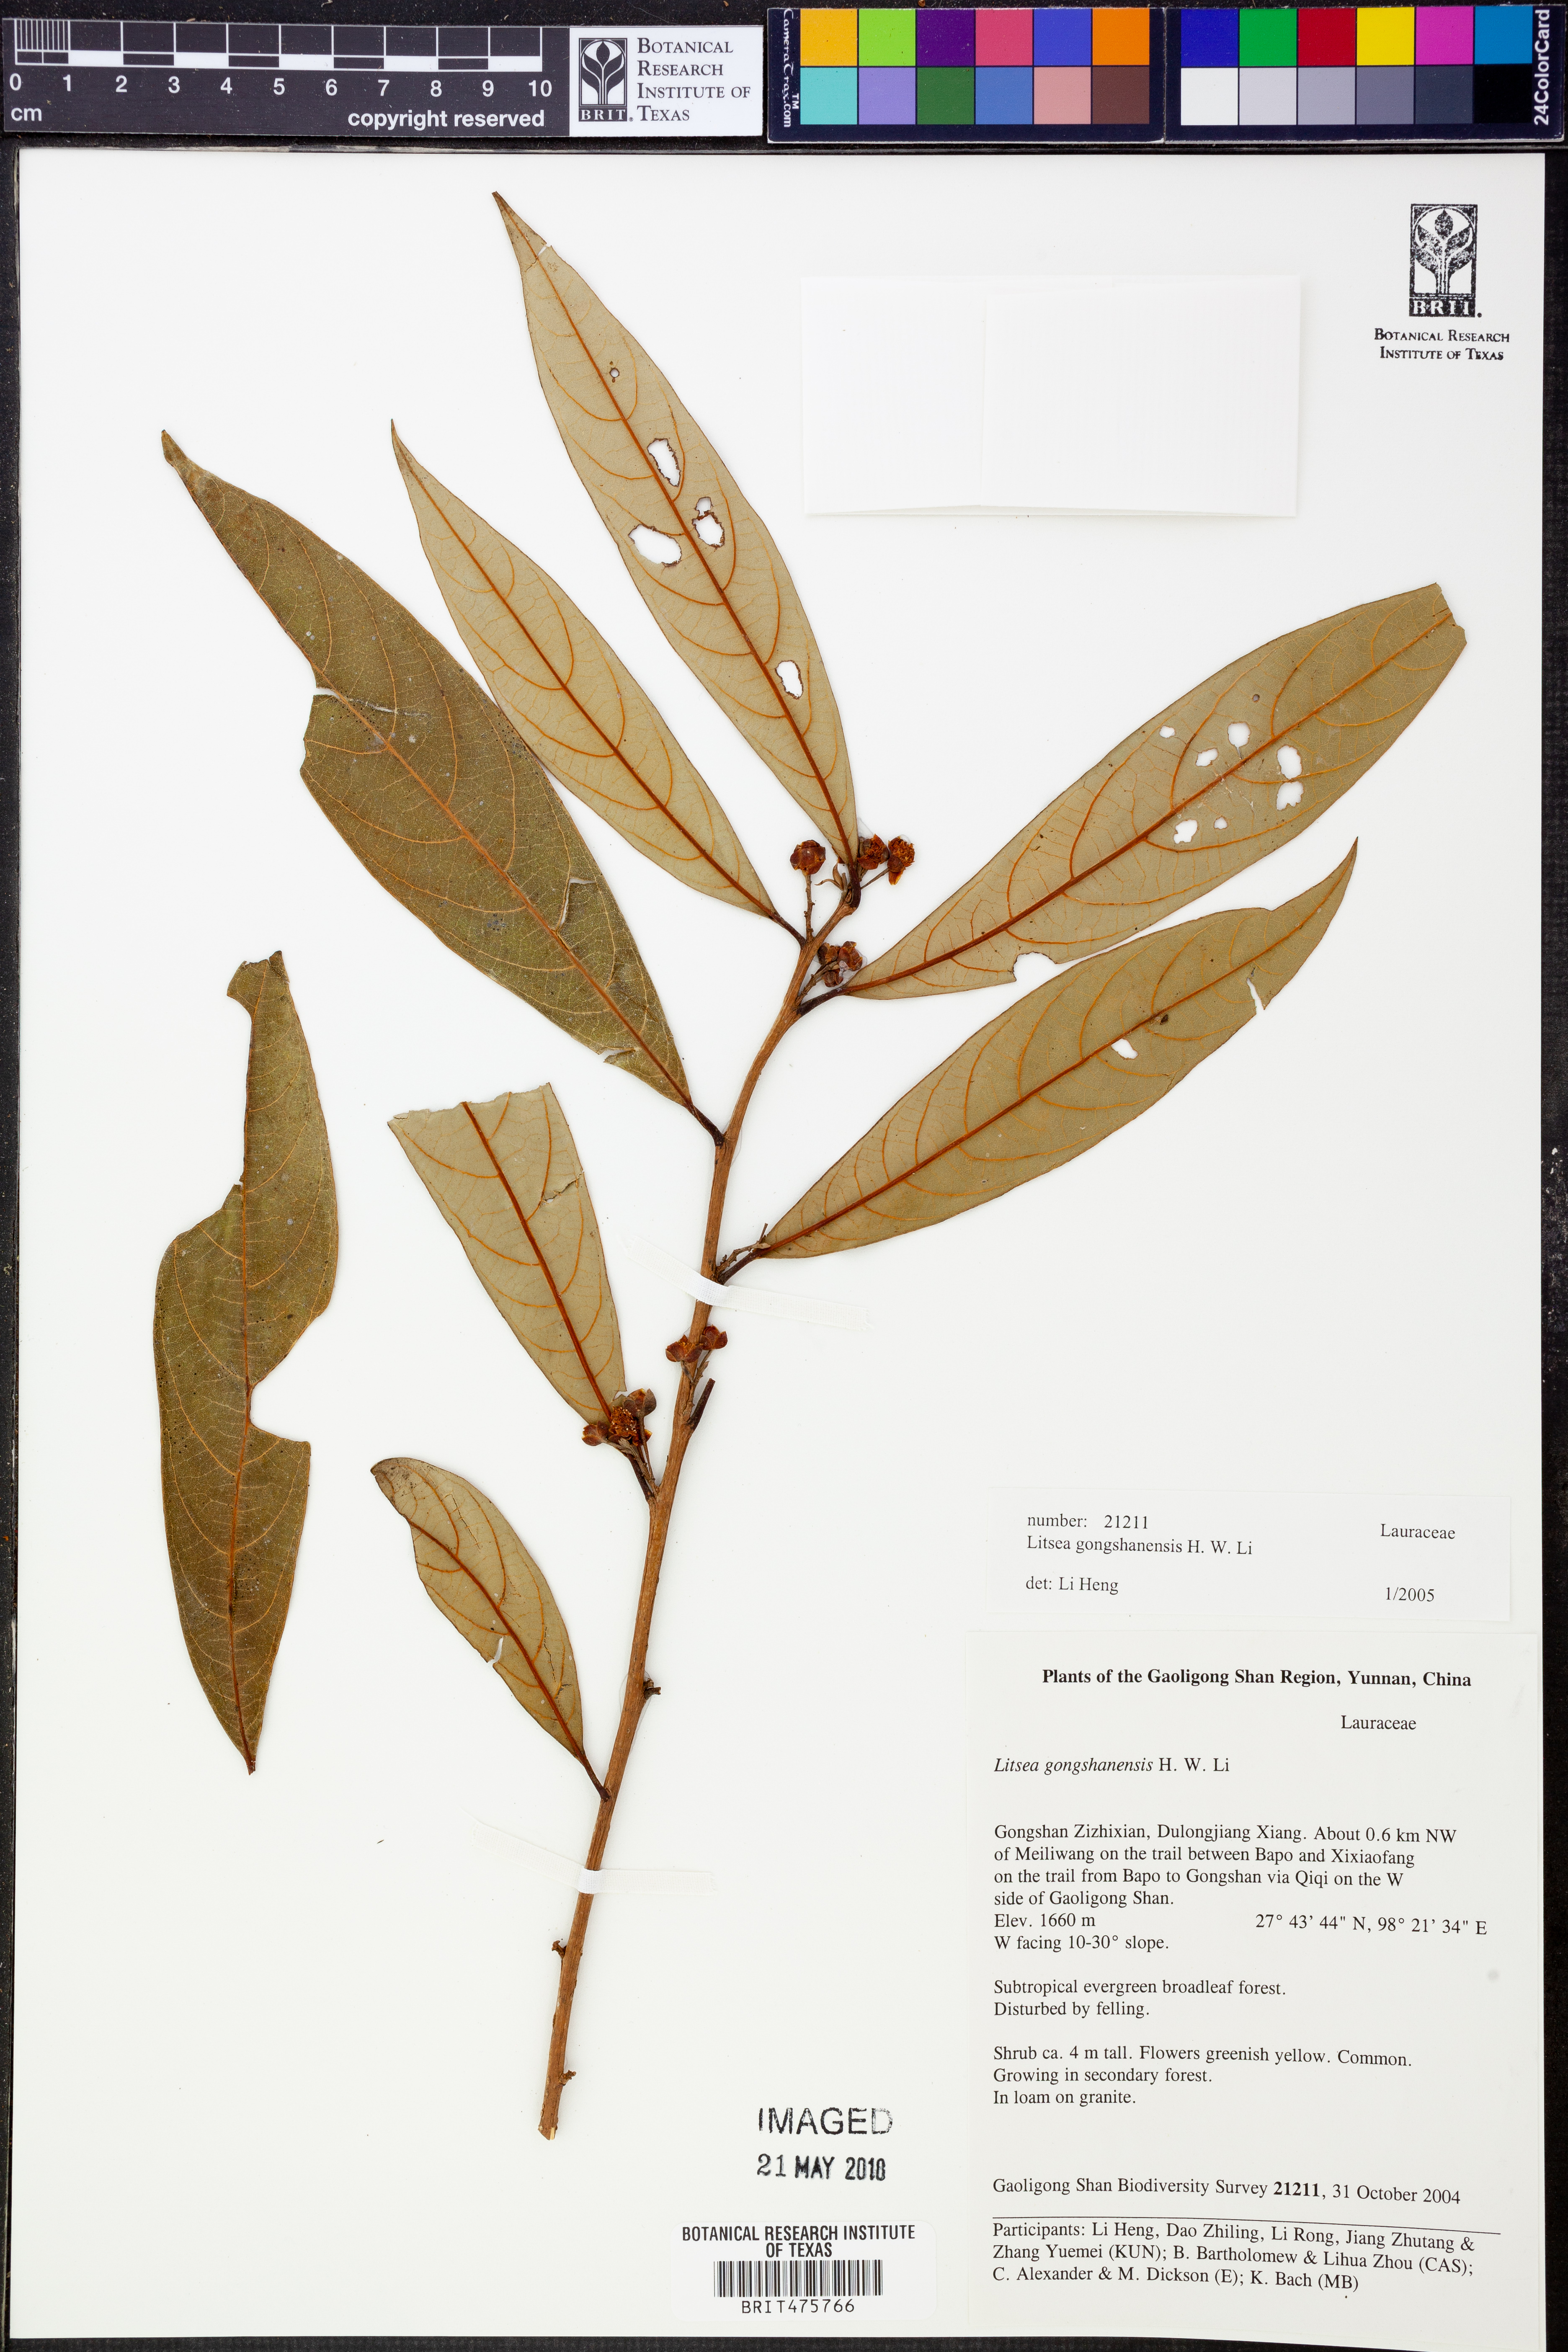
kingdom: Plantae
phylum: Tracheophyta
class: Magnoliopsida
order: Laurales
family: Lauraceae
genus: Litsea
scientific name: Litsea gongshanensis
